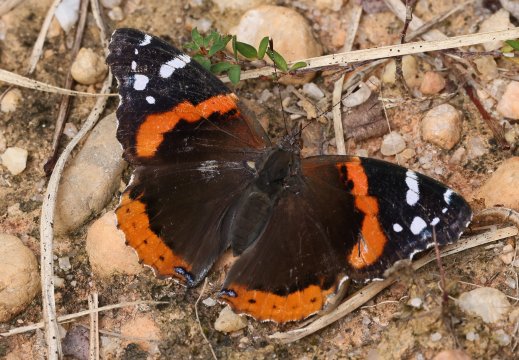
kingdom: Animalia
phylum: Arthropoda
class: Insecta
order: Lepidoptera
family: Nymphalidae
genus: Vanessa
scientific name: Vanessa atalanta
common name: Red Admiral
